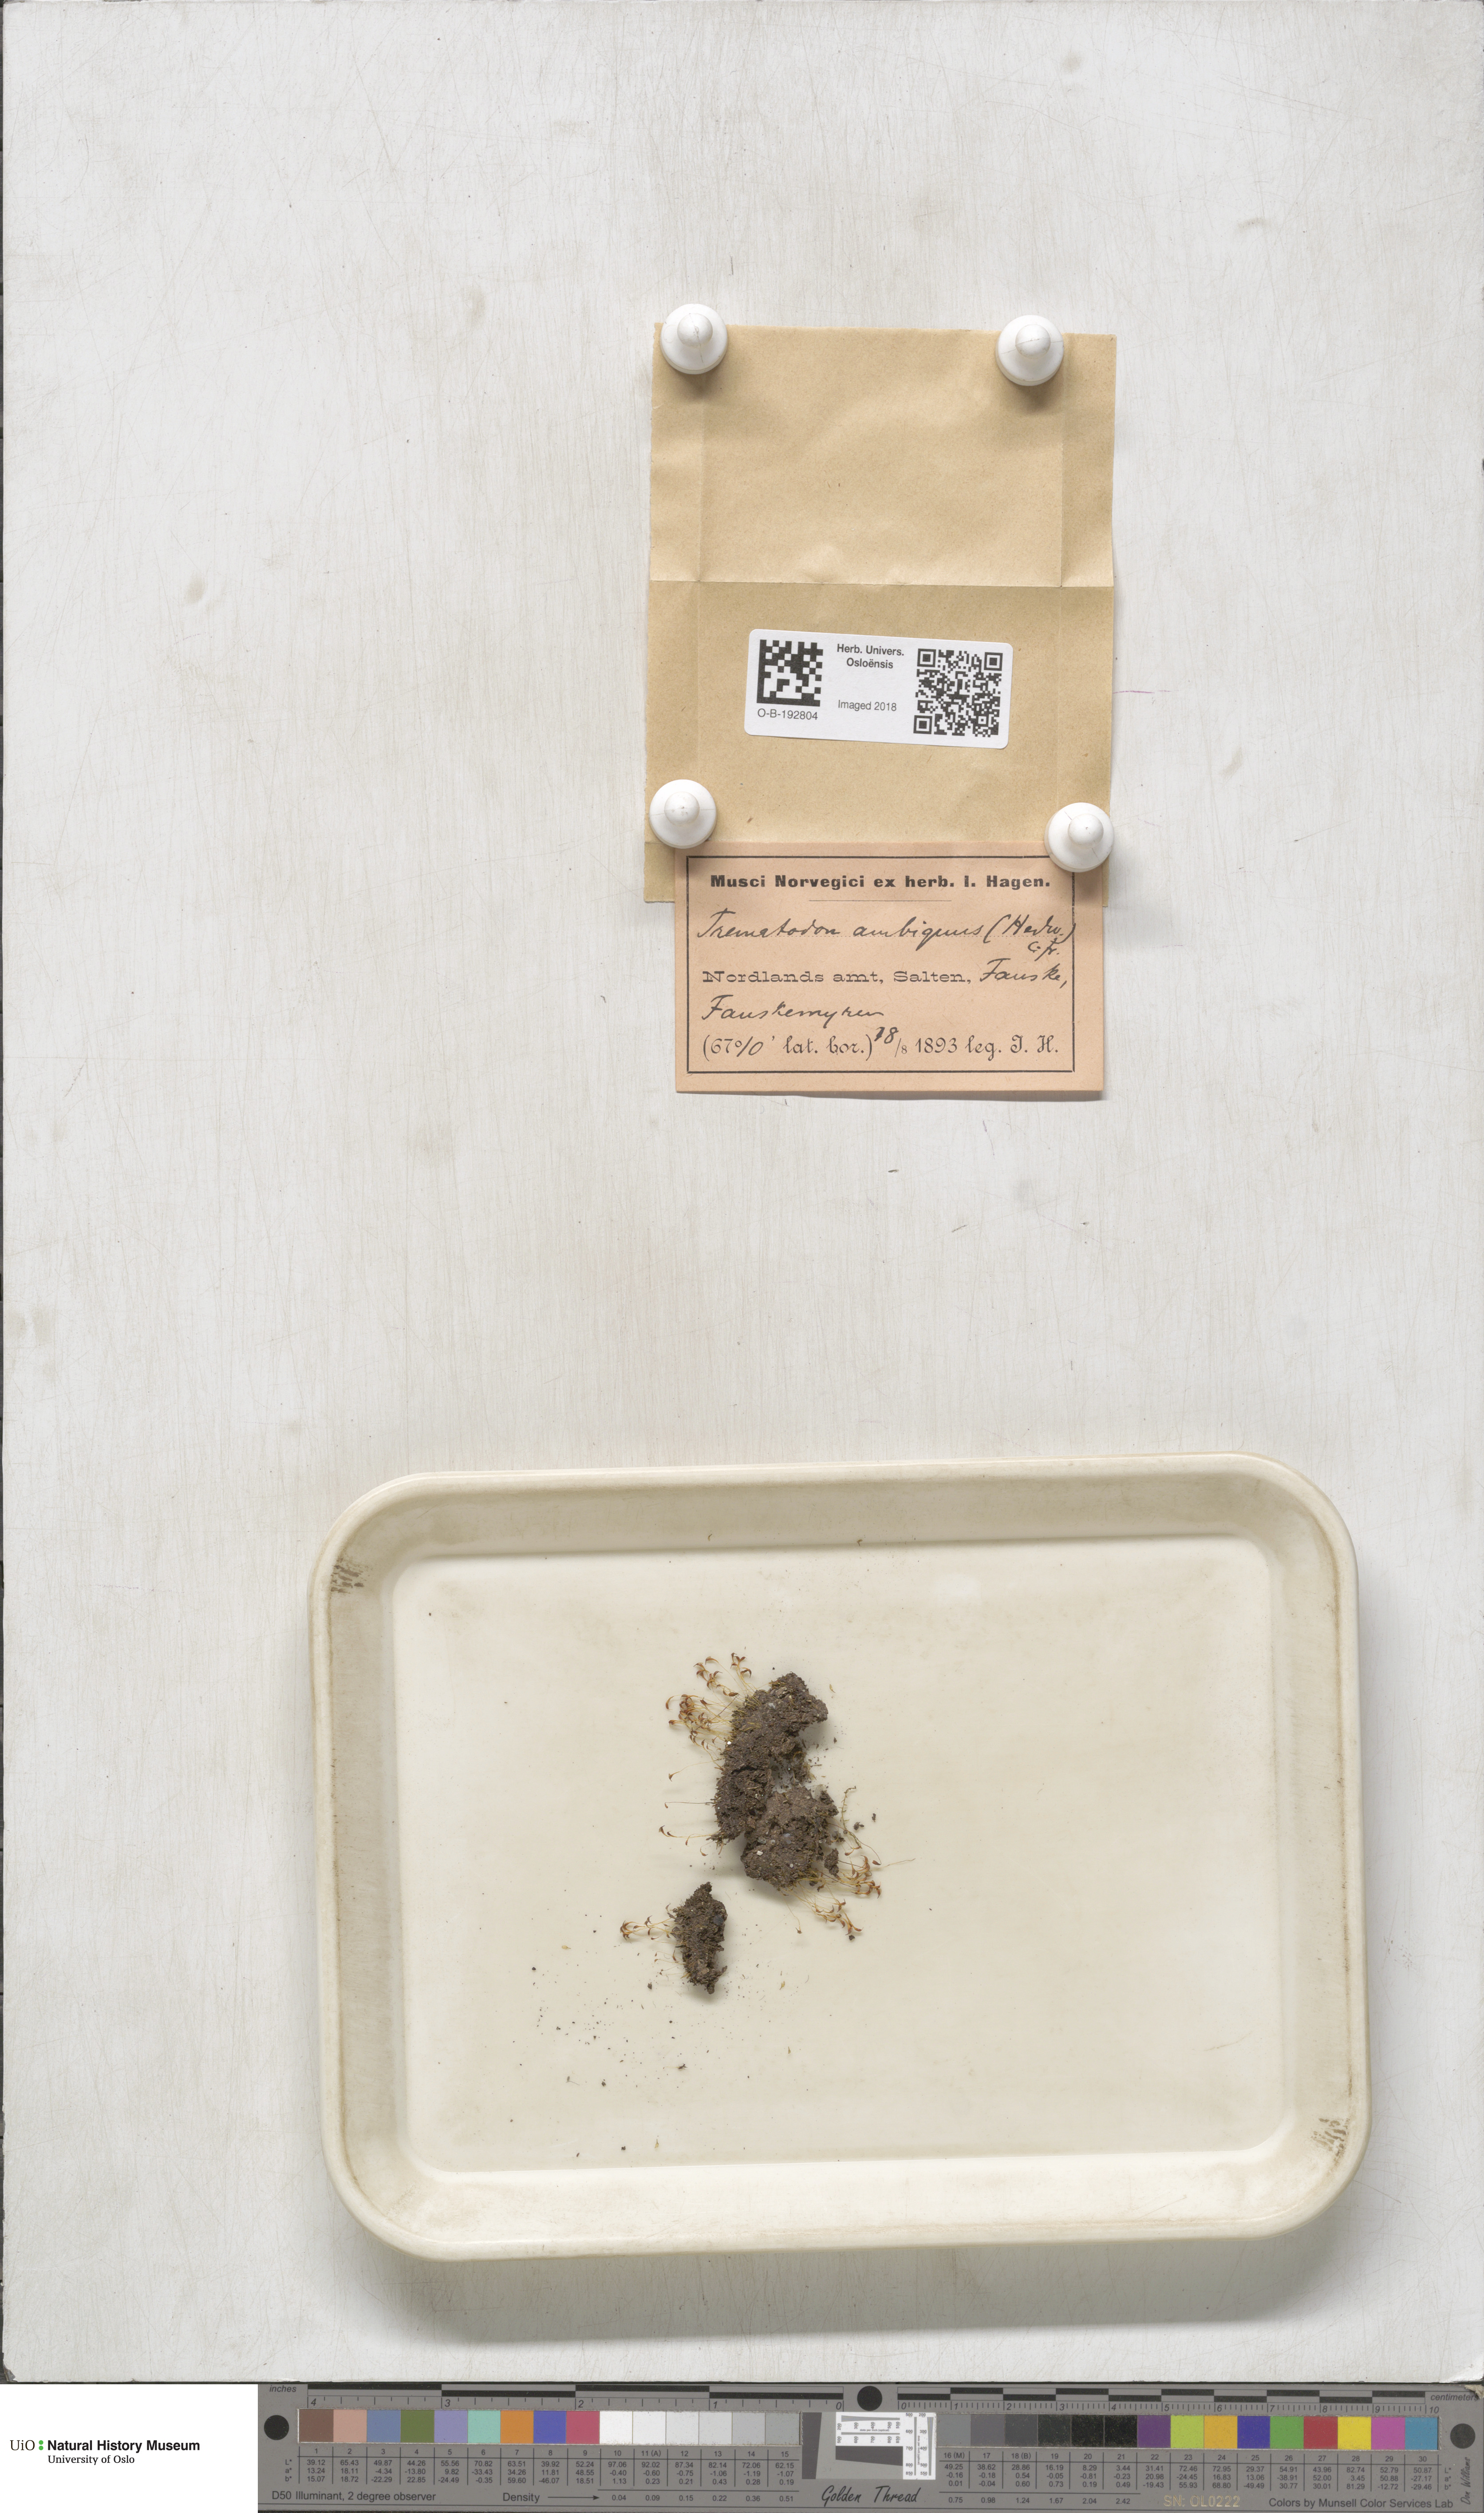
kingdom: Plantae
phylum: Bryophyta
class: Bryopsida
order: Dicranales
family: Bruchiaceae
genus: Trematodon
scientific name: Trematodon ambiguus
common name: Ambiguous long-necked moss
